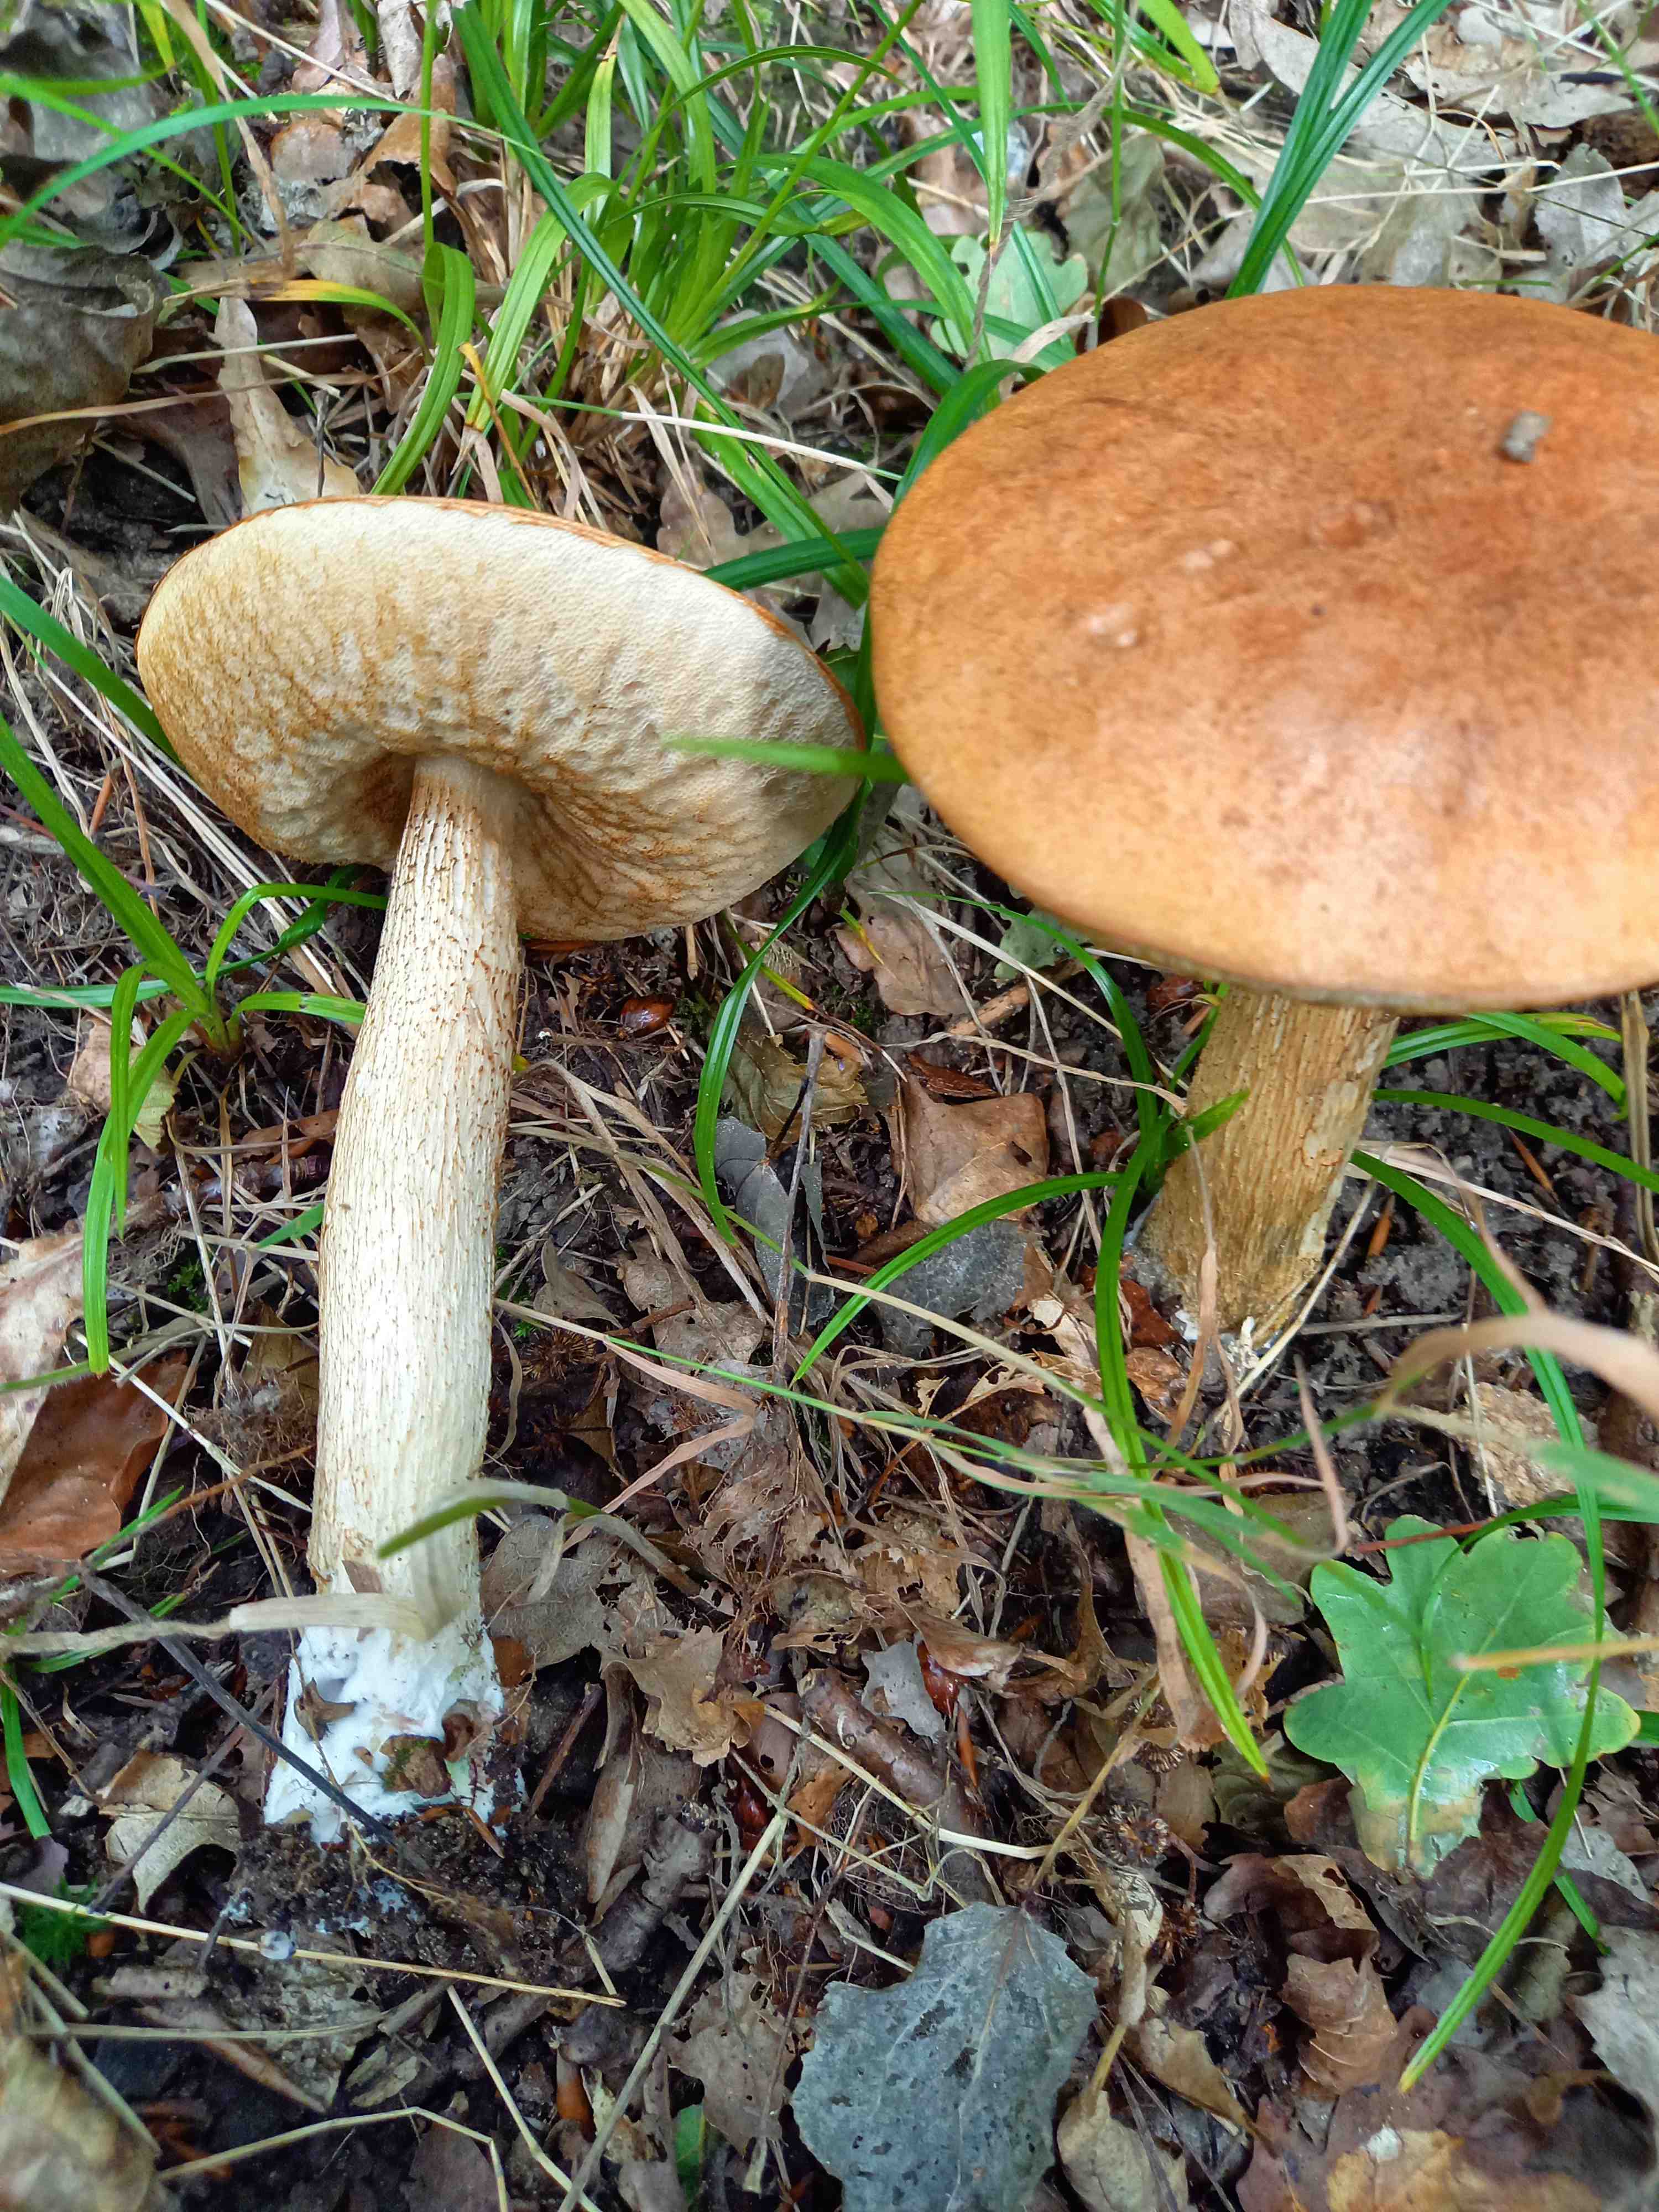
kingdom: Fungi
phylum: Basidiomycota
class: Agaricomycetes
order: Boletales
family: Boletaceae
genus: Leccinum
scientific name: Leccinum albostipitatum
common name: aspe-skælrørhat
